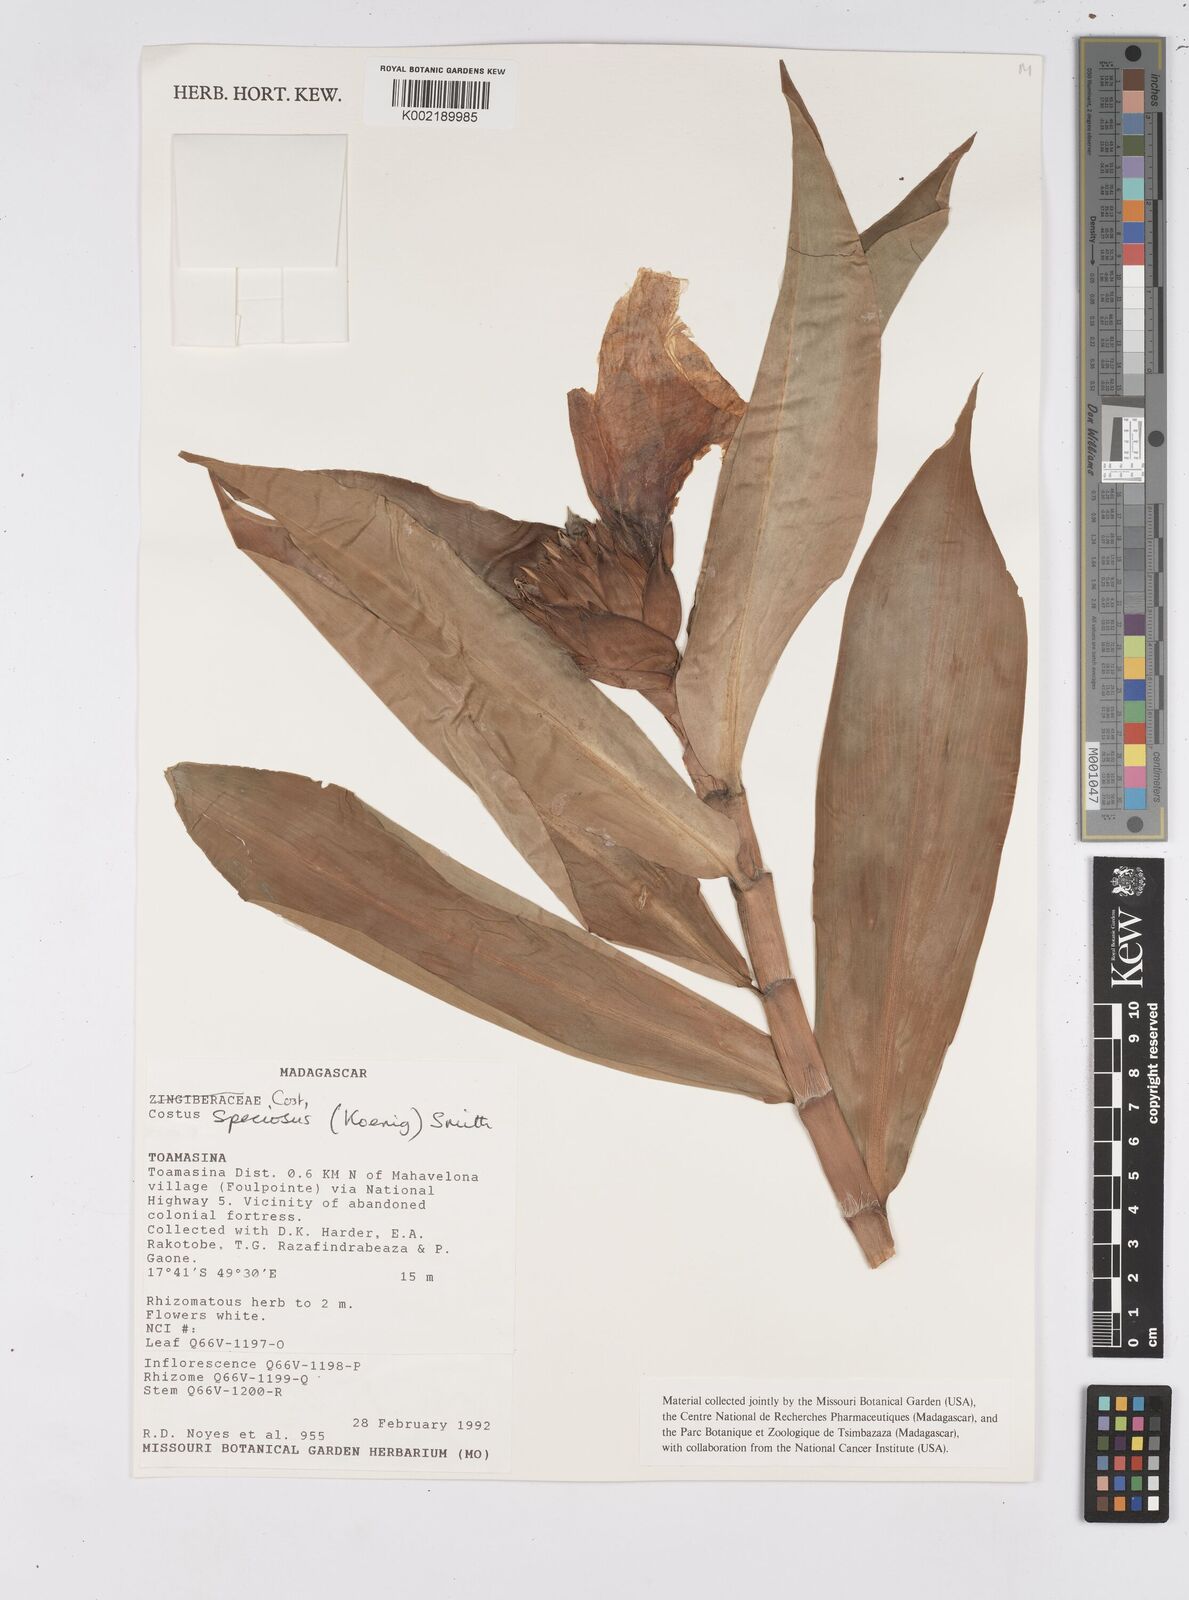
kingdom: Plantae
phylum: Tracheophyta
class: Liliopsida
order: Zingiberales
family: Costaceae
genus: Hellenia
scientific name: Hellenia speciosa
